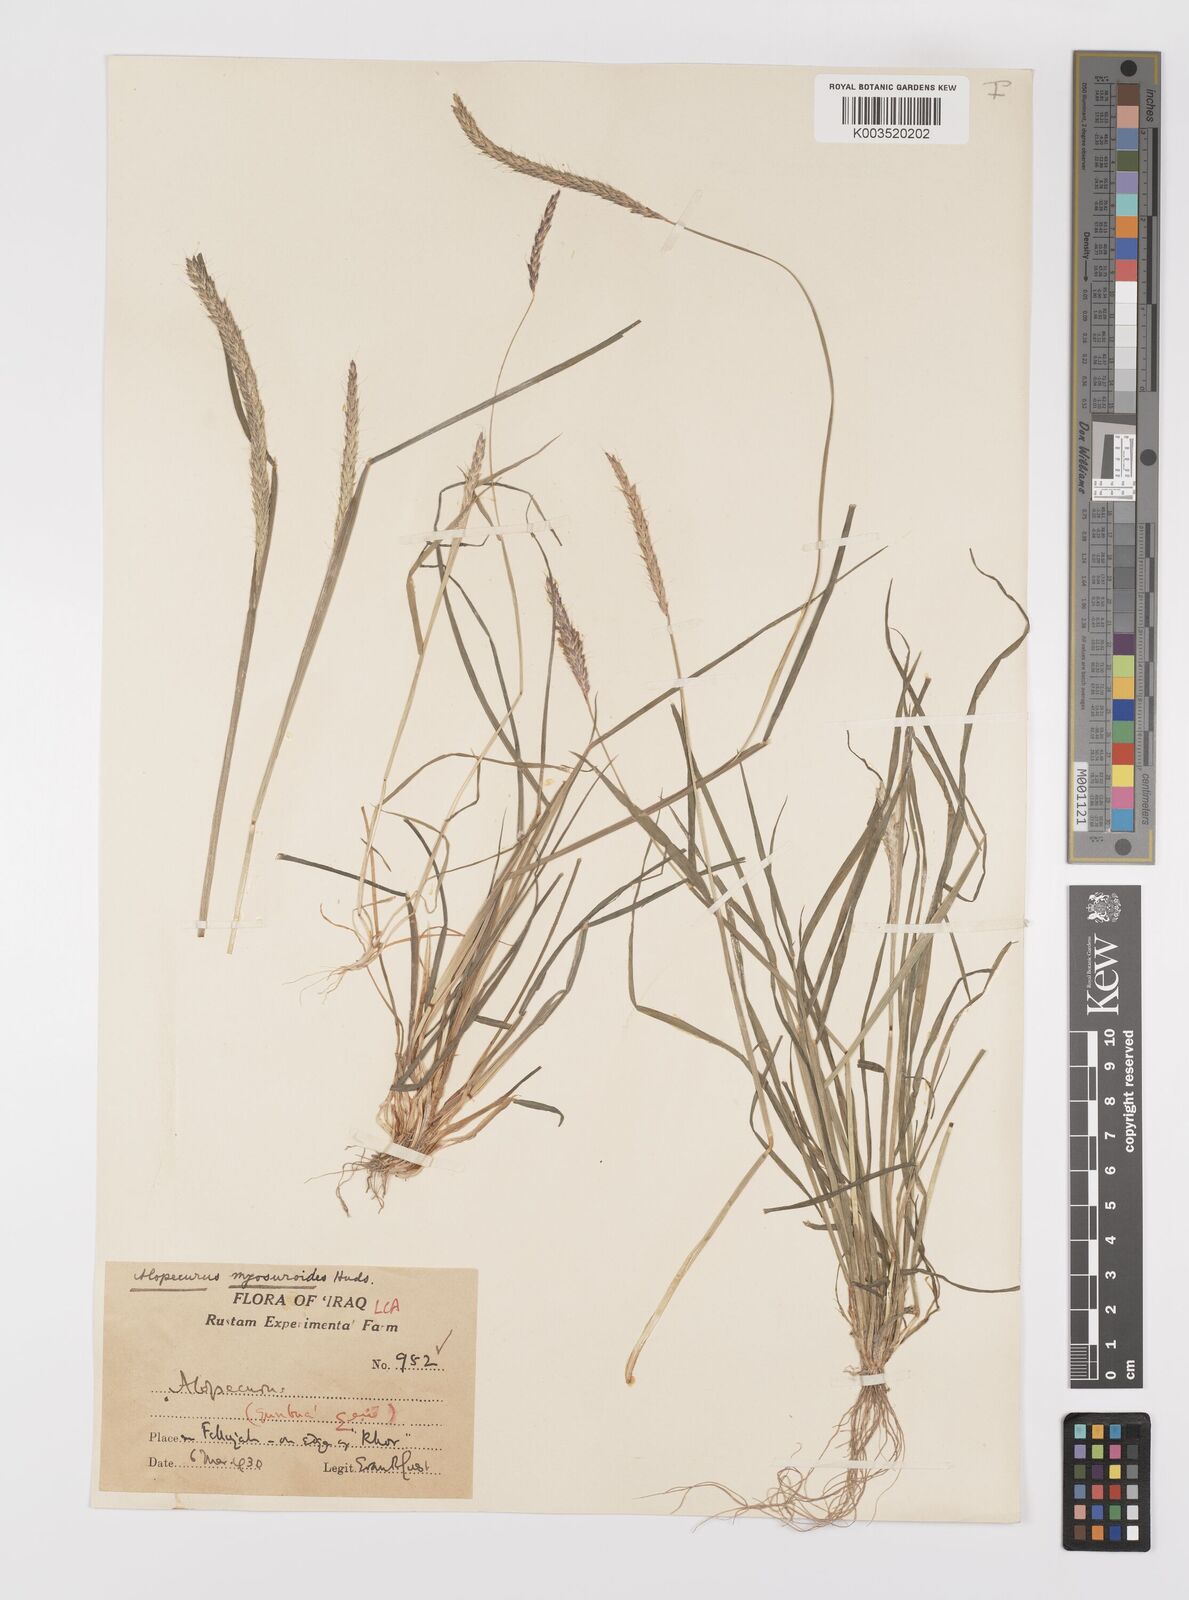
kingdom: Plantae
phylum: Tracheophyta
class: Liliopsida
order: Poales
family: Poaceae
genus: Alopecurus
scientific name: Alopecurus myosuroides
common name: Black-grass
